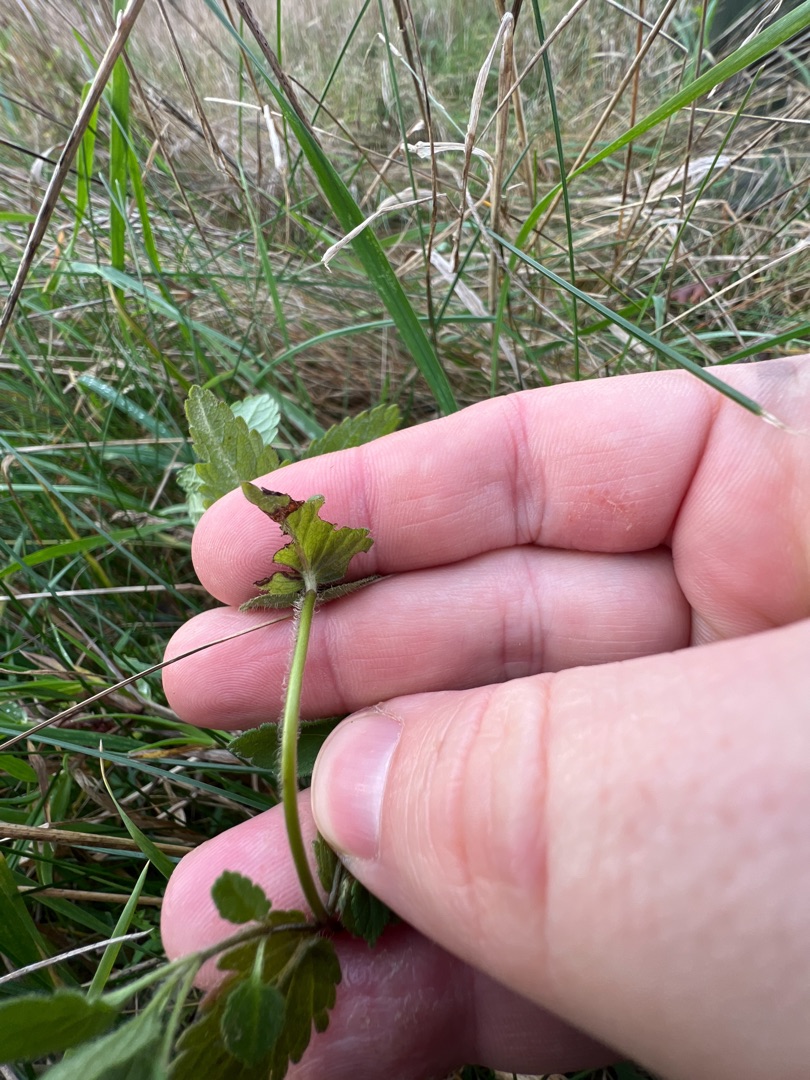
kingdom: Plantae
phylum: Tracheophyta
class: Magnoliopsida
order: Lamiales
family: Plantaginaceae
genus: Veronica
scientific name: Veronica chamaedrys
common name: Tveskægget ærenpris
